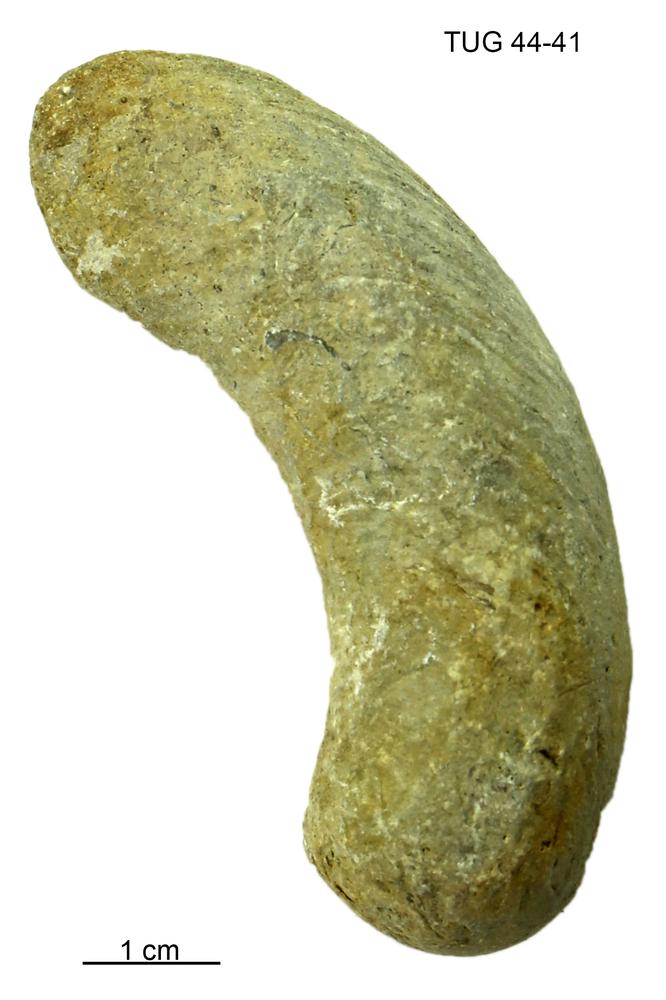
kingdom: Animalia
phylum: Mollusca
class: Cephalopoda
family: Trocholitidae
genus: Discoceras
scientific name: Discoceras
